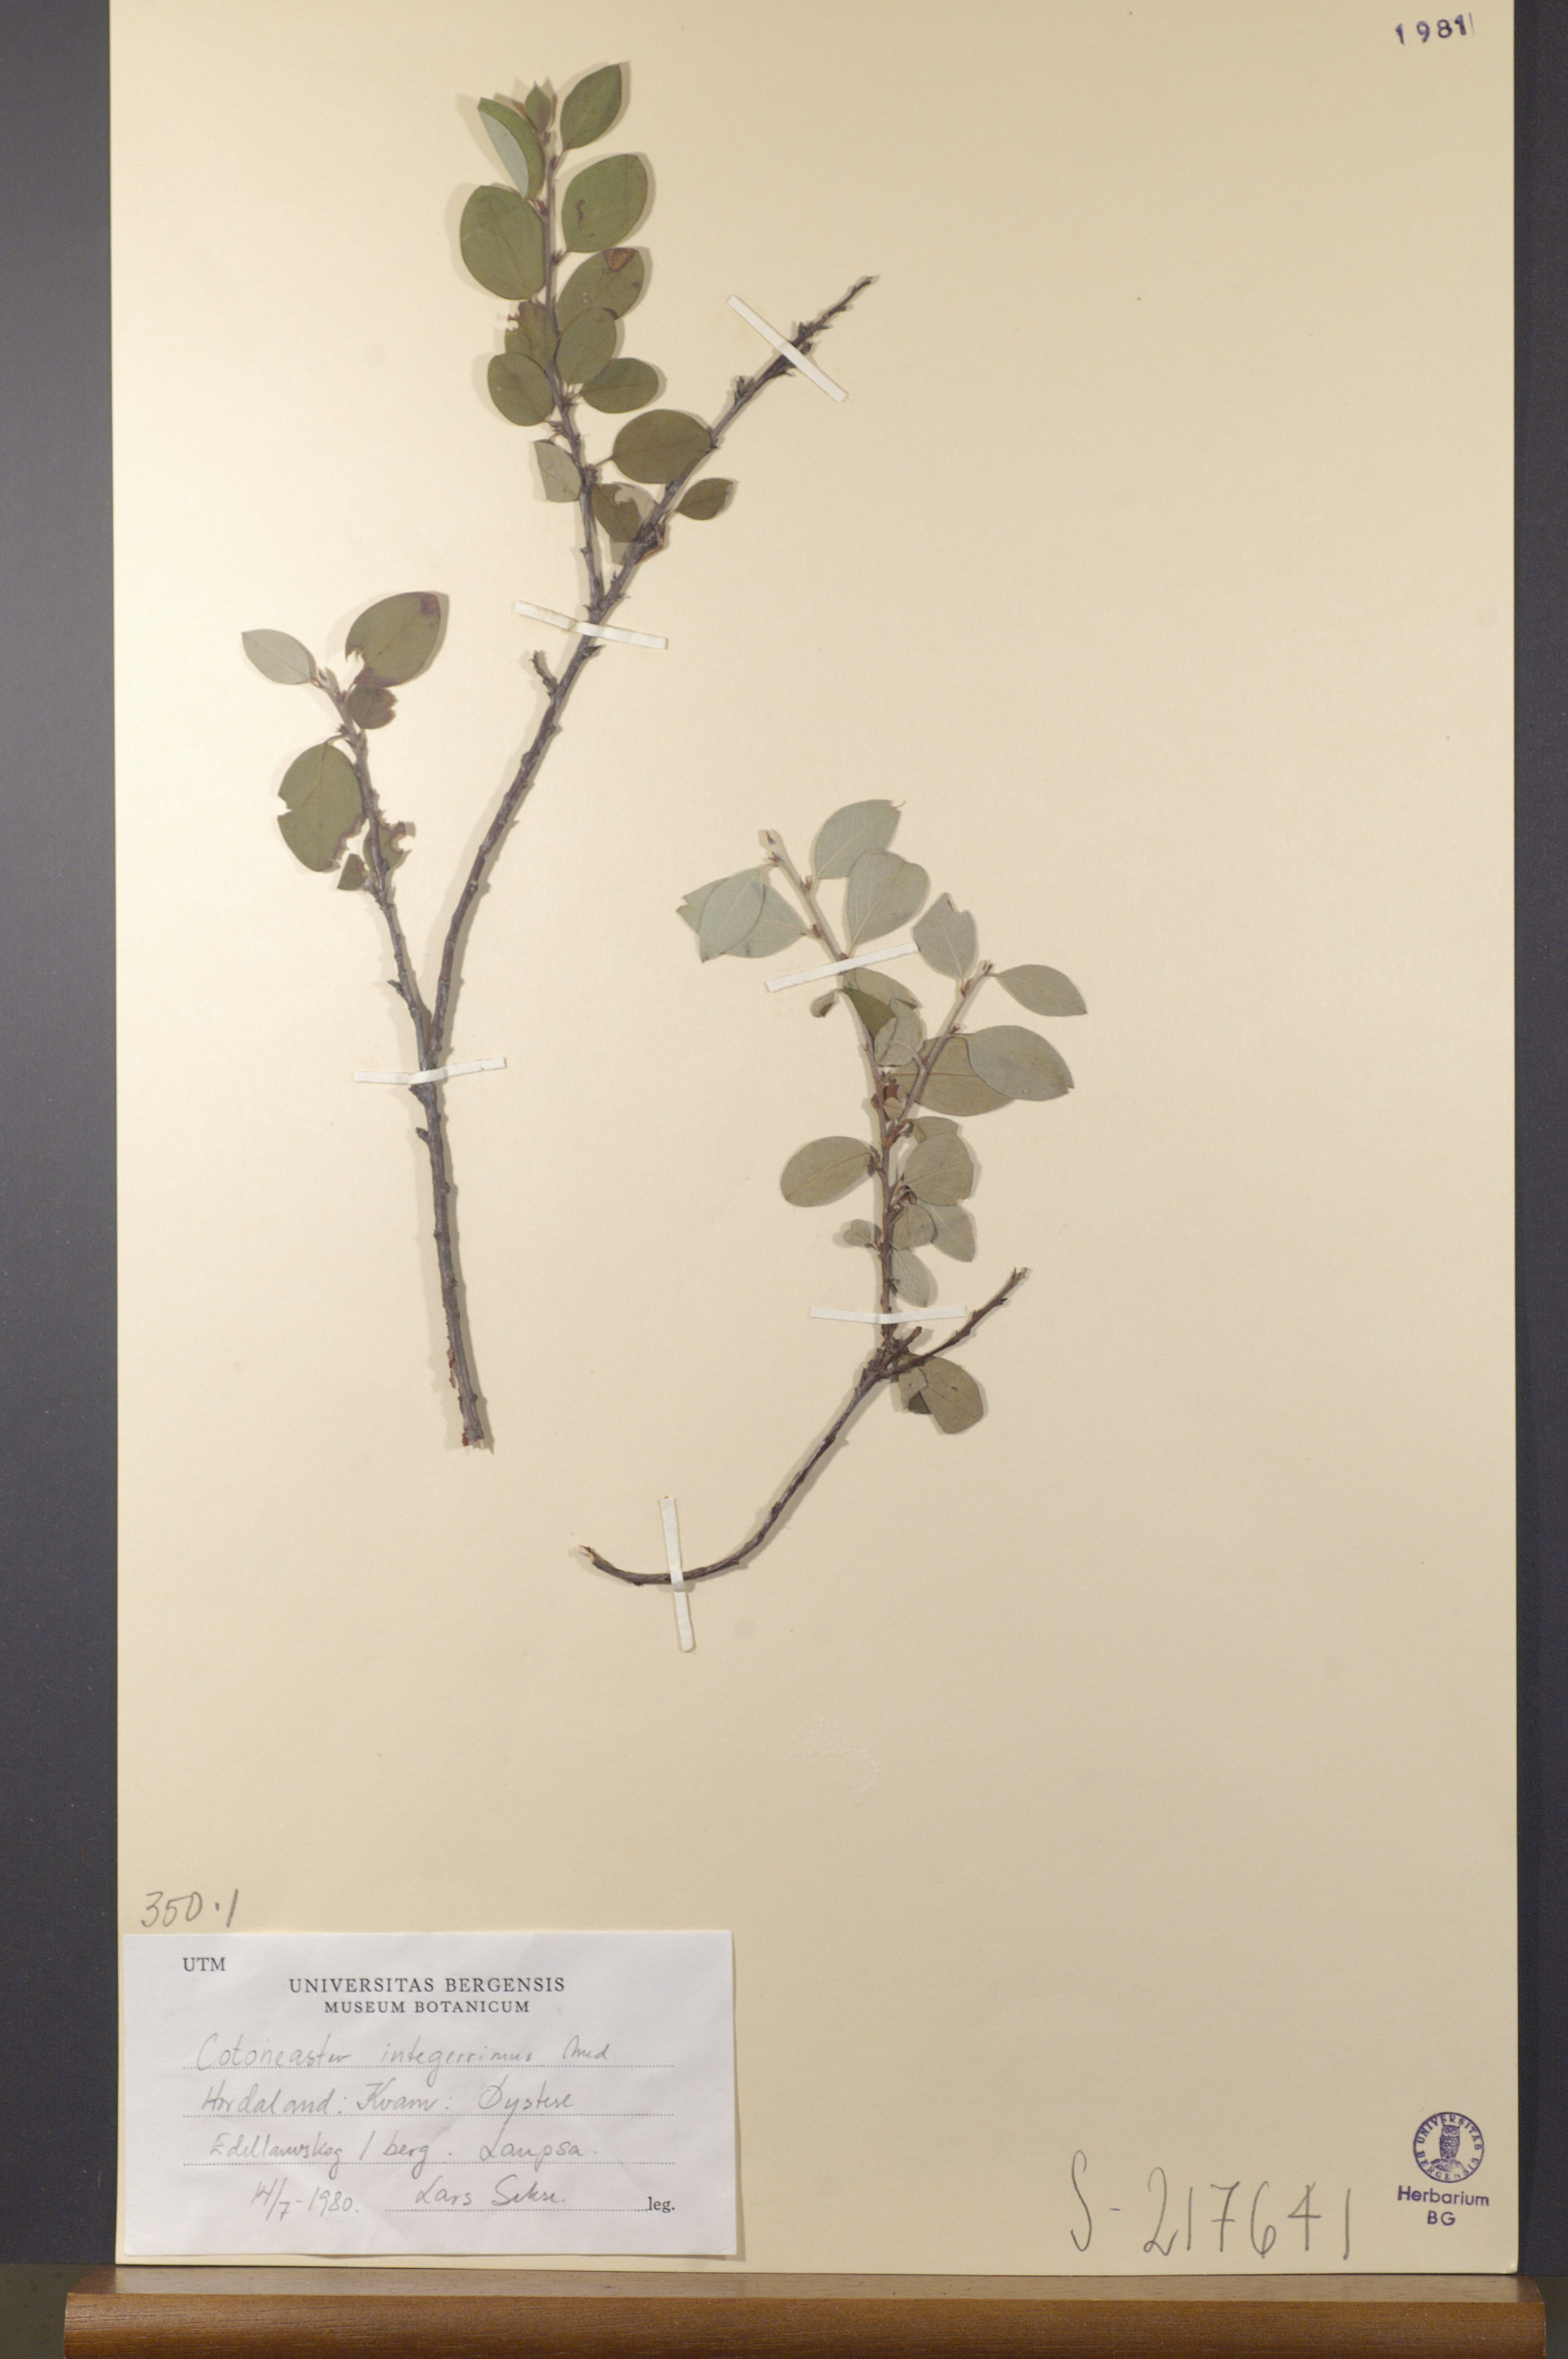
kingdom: Plantae
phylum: Tracheophyta
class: Magnoliopsida
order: Rosales
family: Rosaceae
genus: Cotoneaster
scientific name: Cotoneaster integerrimus
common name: Wild cotoneaster
